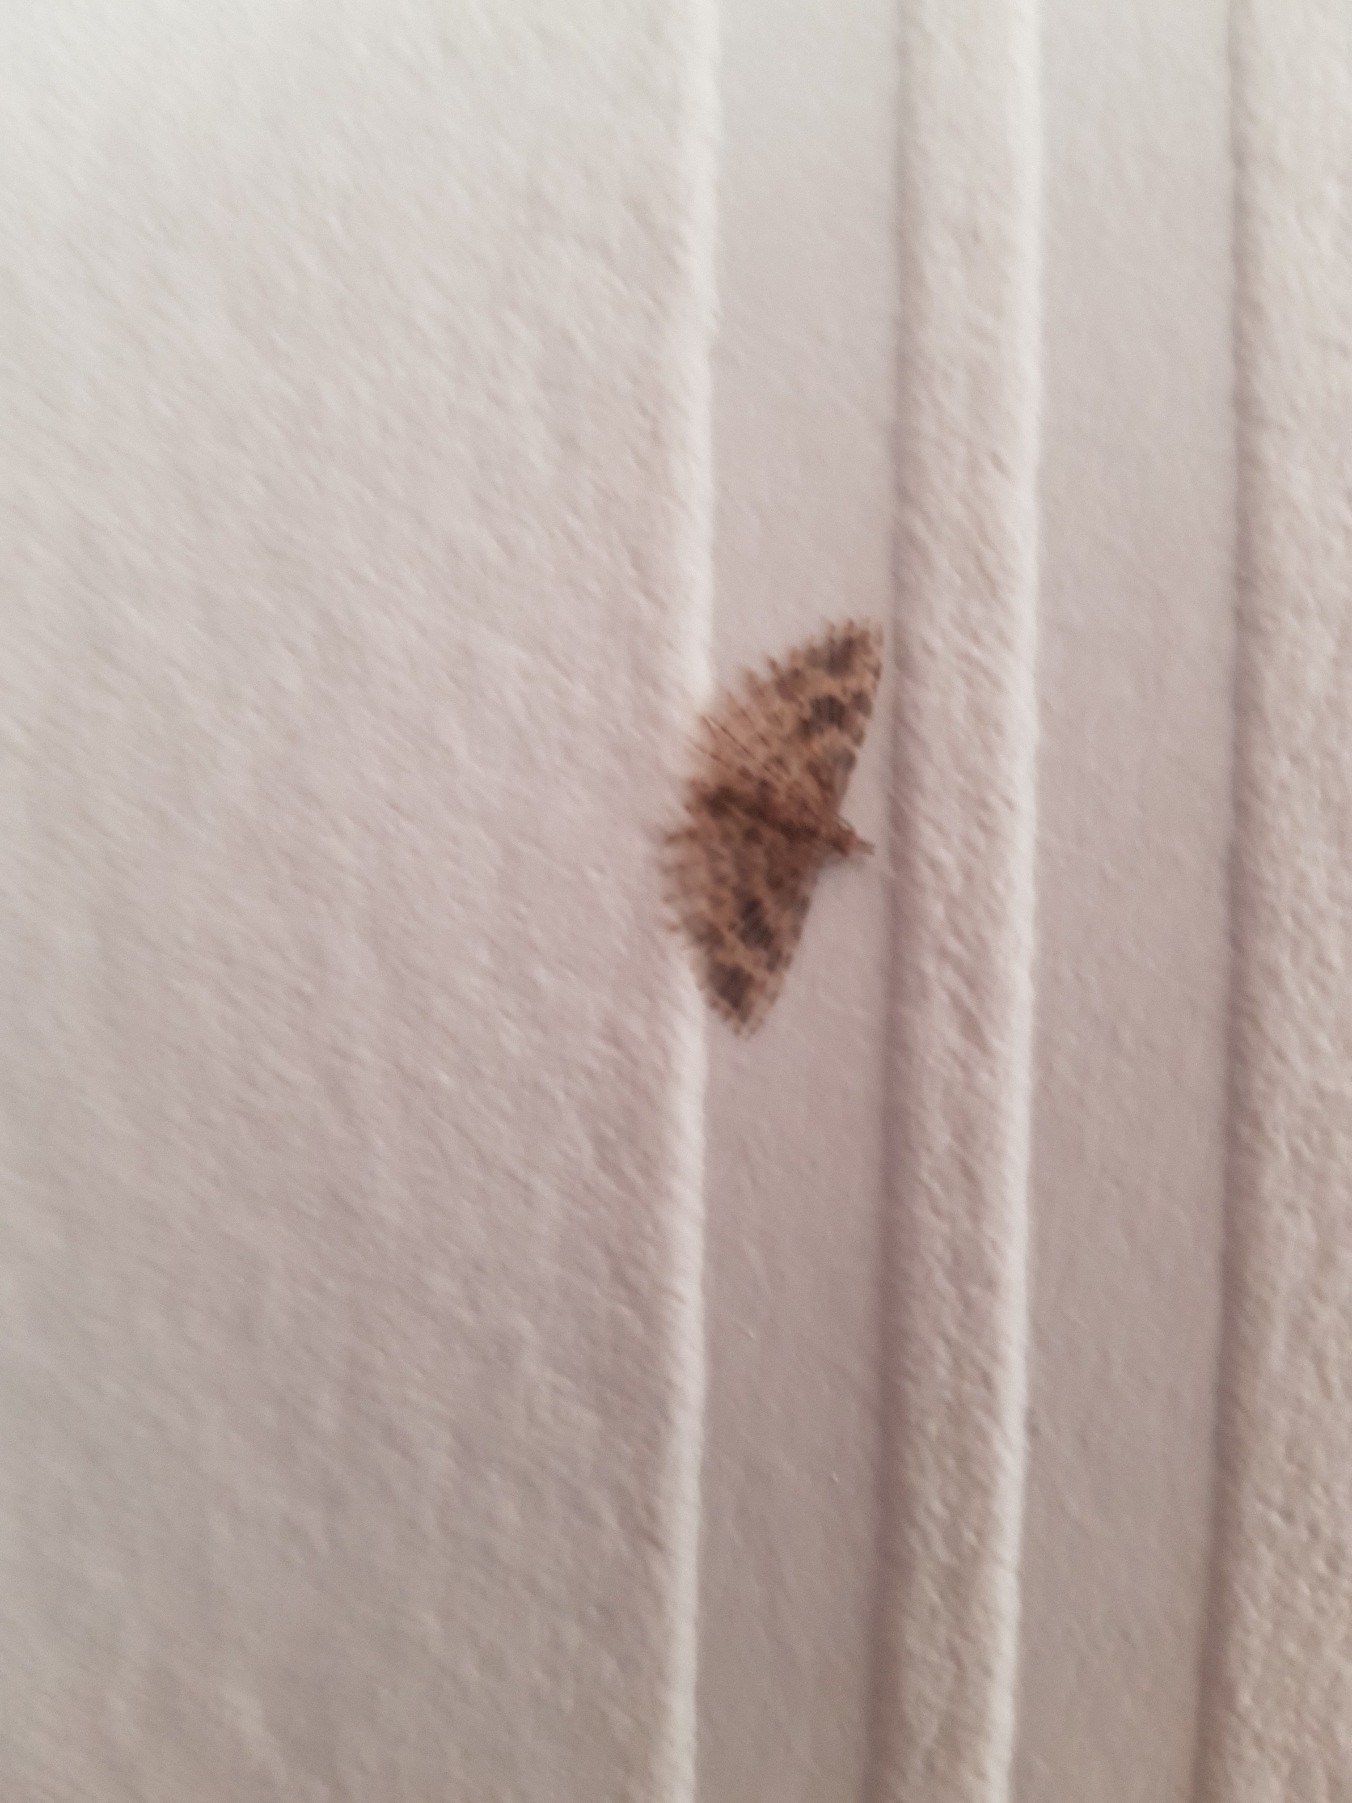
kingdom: Animalia
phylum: Arthropoda
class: Insecta
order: Lepidoptera
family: Alucitidae
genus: Alucita
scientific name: Alucita hexadactyla
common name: Kaprifoliefjermøl
